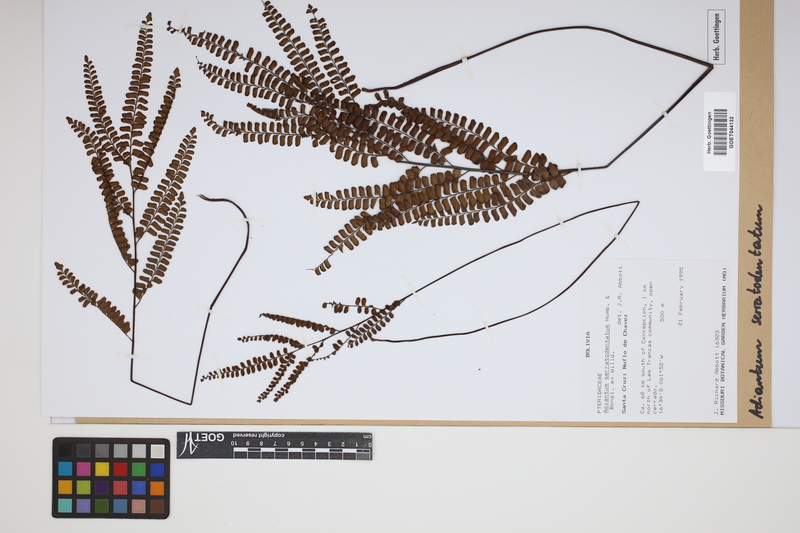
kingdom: Plantae
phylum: Tracheophyta
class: Polypodiopsida
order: Polypodiales
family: Pteridaceae
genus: Adiantum
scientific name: Adiantum serratodentatum
